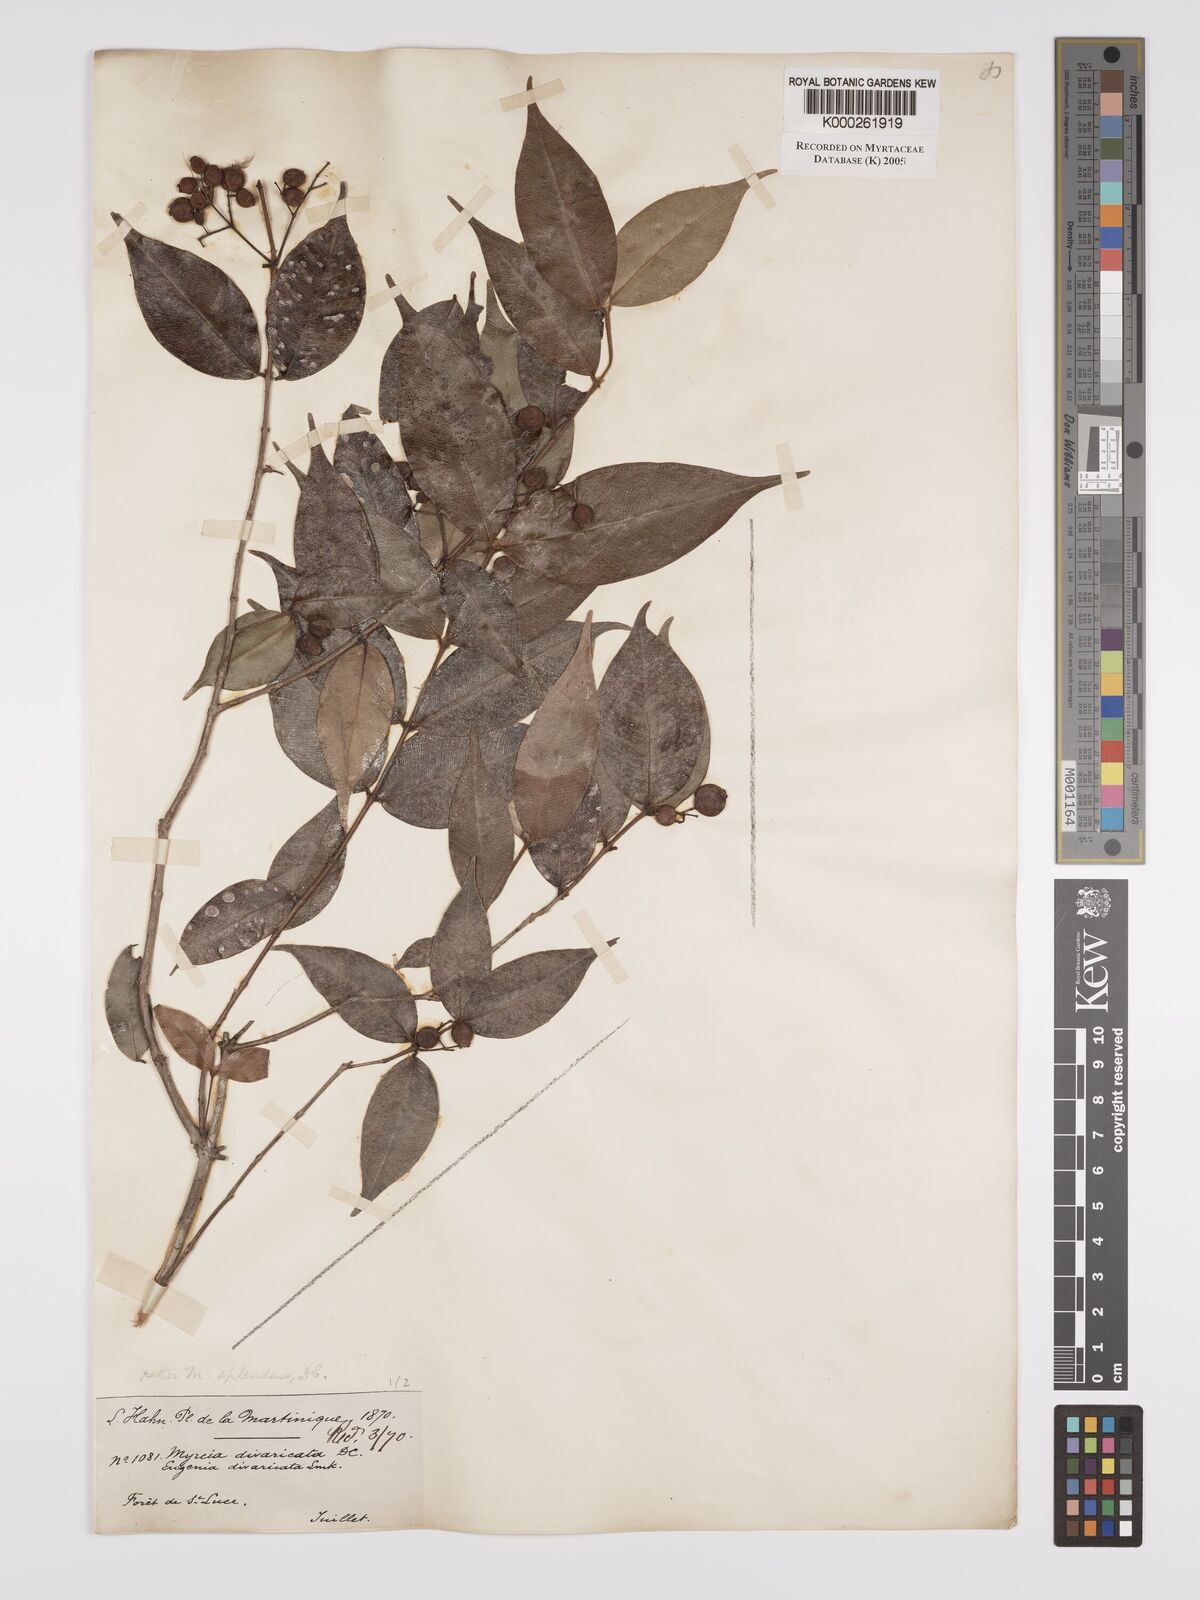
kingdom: Plantae
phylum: Tracheophyta
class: Magnoliopsida
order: Myrtales
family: Myrtaceae
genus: Myrcia
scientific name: Myrcia splendens
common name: Surinam cherry
